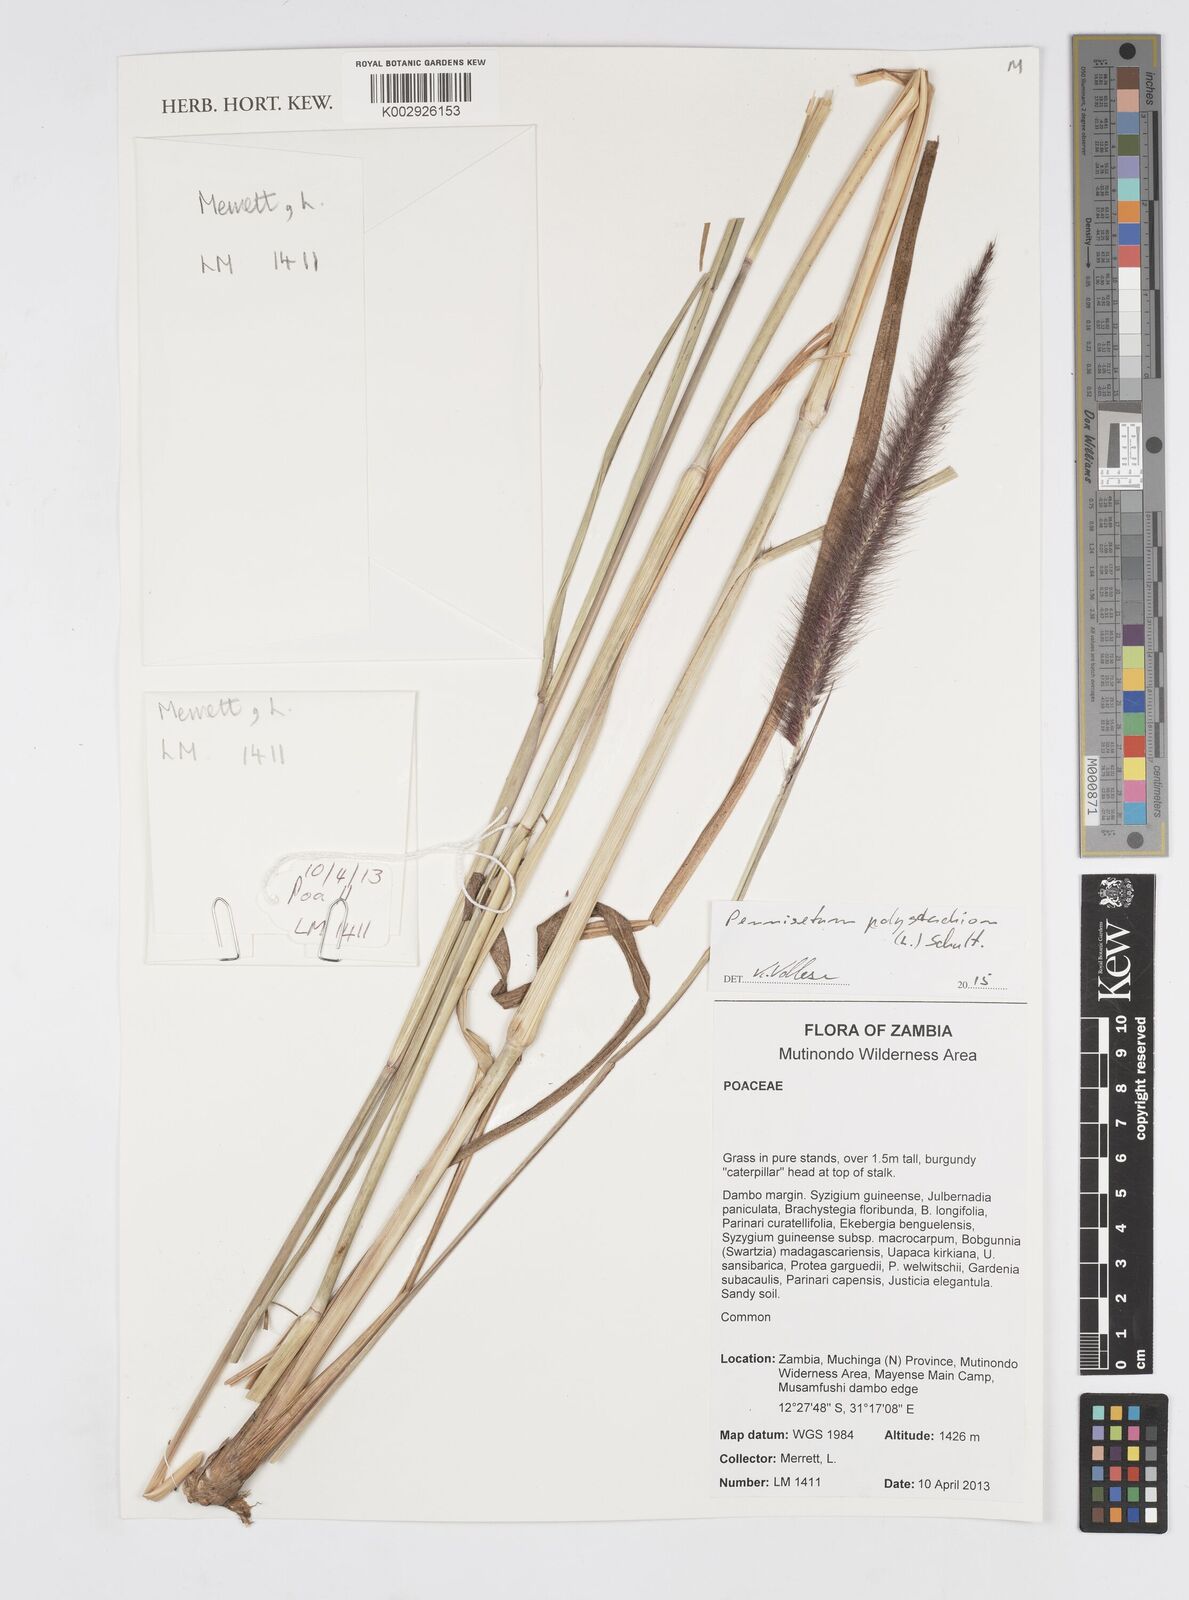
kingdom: Plantae
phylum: Tracheophyta
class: Liliopsida
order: Poales
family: Poaceae
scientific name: Poaceae
